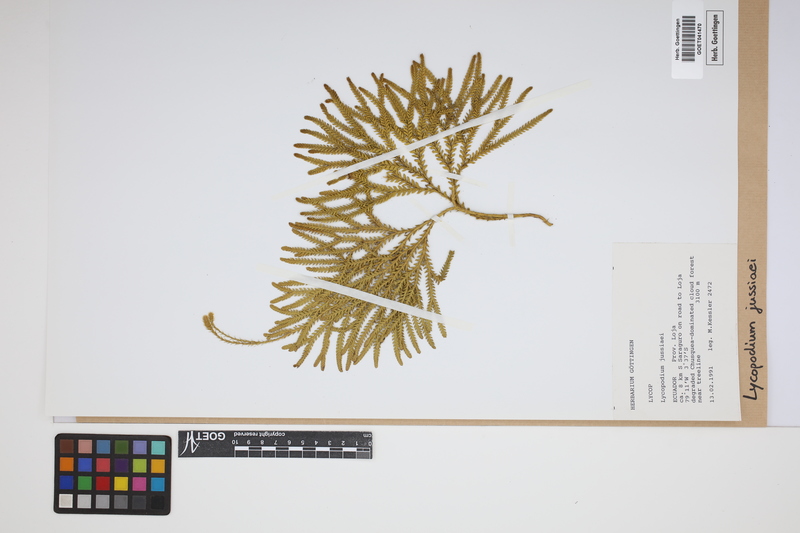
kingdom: Plantae
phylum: Tracheophyta
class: Lycopodiopsida
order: Lycopodiales
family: Lycopodiaceae
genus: Diphasium
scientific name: Diphasium jussiaei
